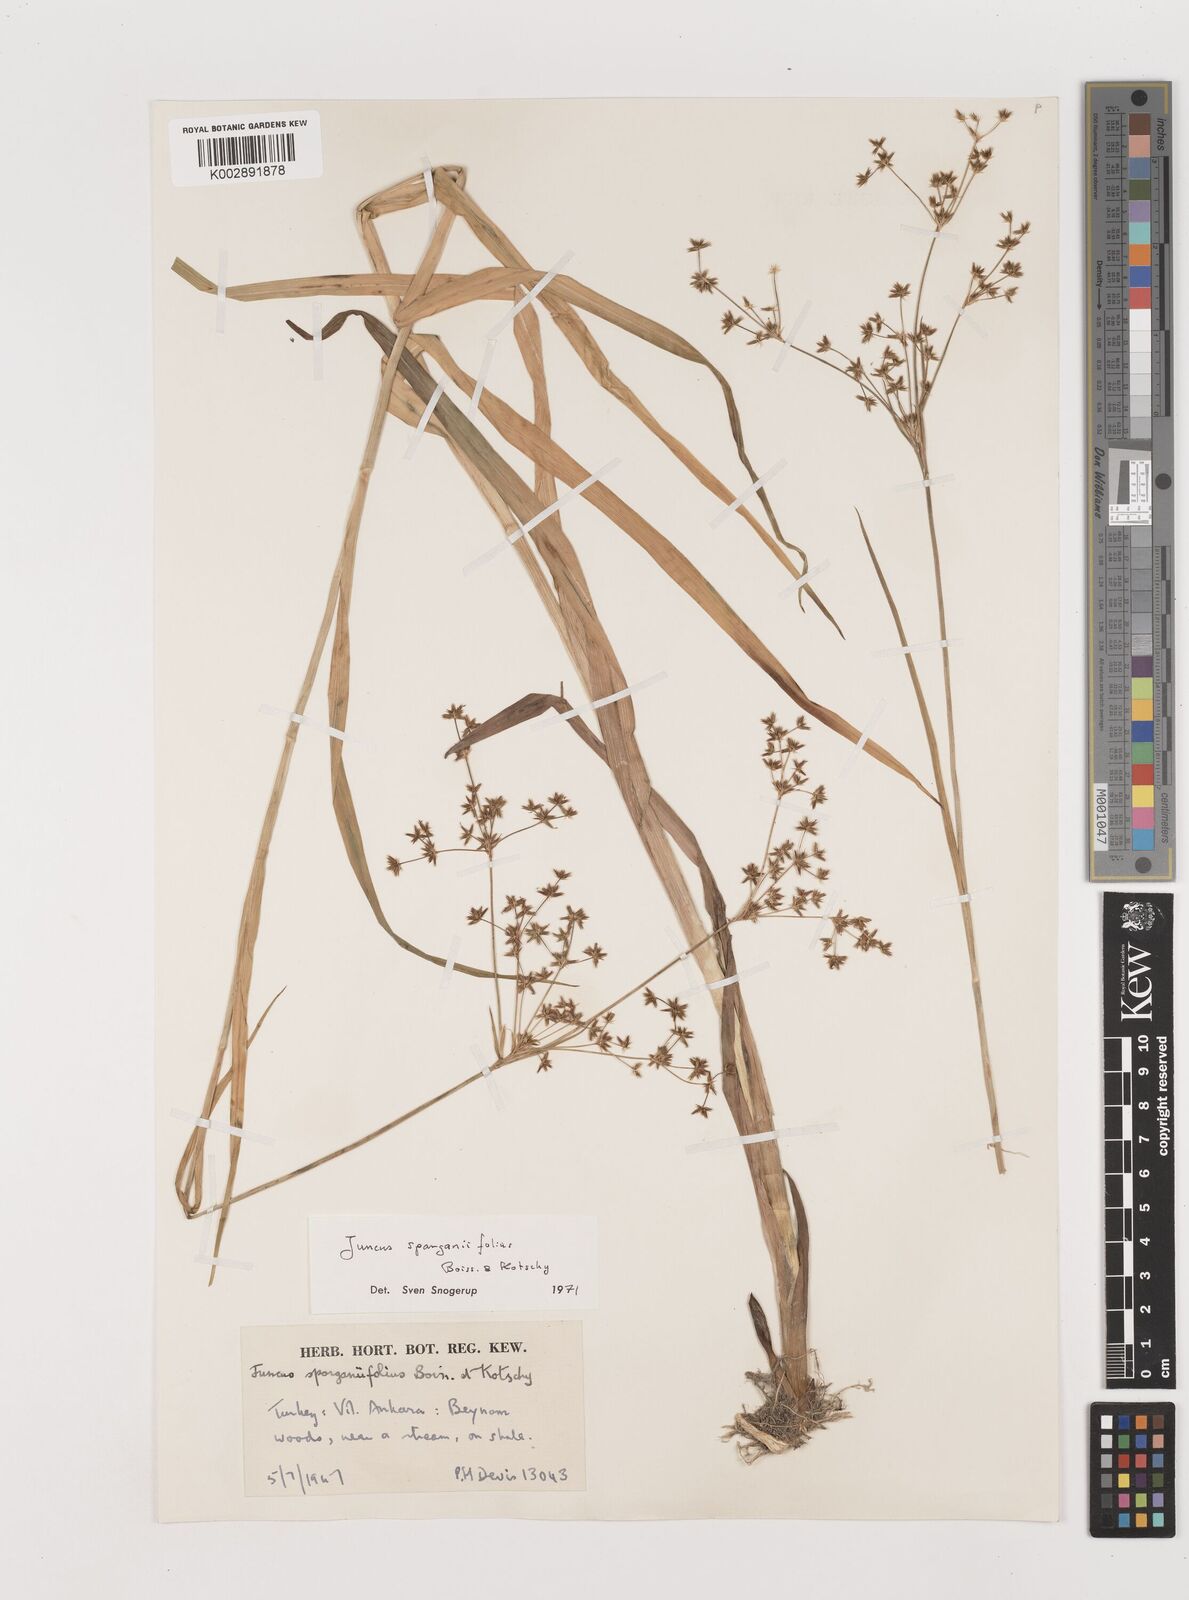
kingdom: Plantae
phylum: Tracheophyta
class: Liliopsida
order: Poales
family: Juncaceae
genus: Juncus
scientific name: Juncus sparganiifolius
